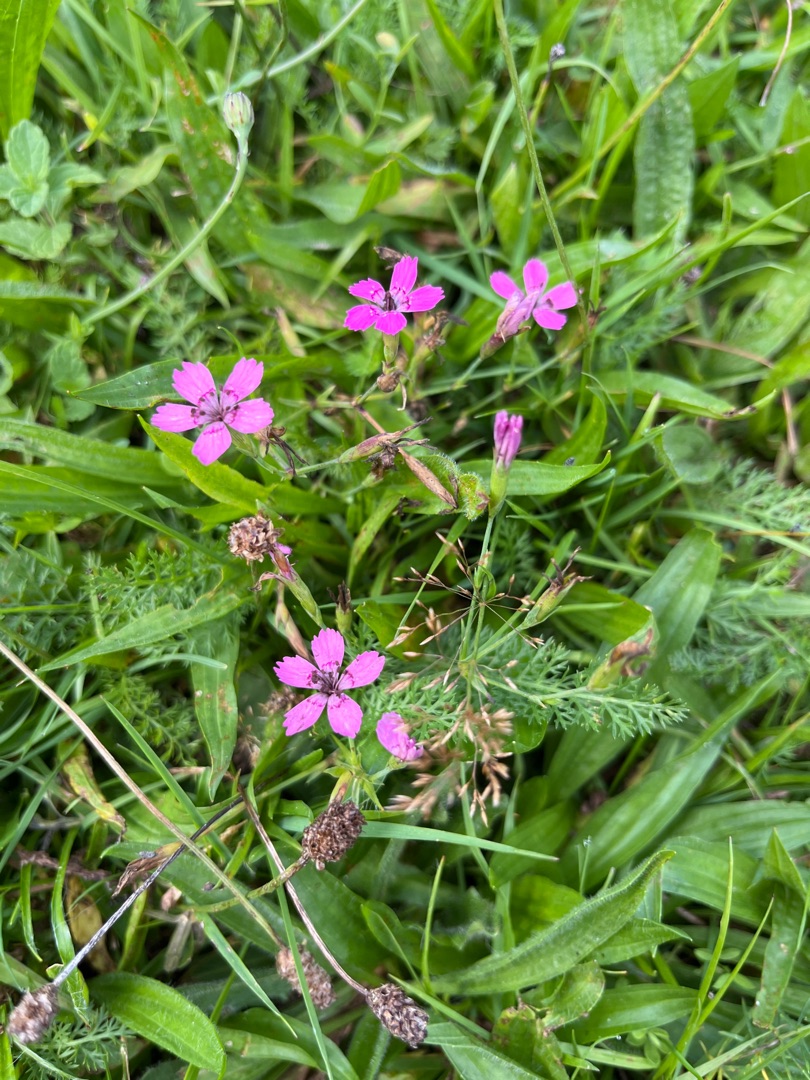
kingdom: Plantae
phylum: Tracheophyta
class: Magnoliopsida
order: Caryophyllales
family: Caryophyllaceae
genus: Dianthus
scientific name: Dianthus deltoides
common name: Bakke-nellike
